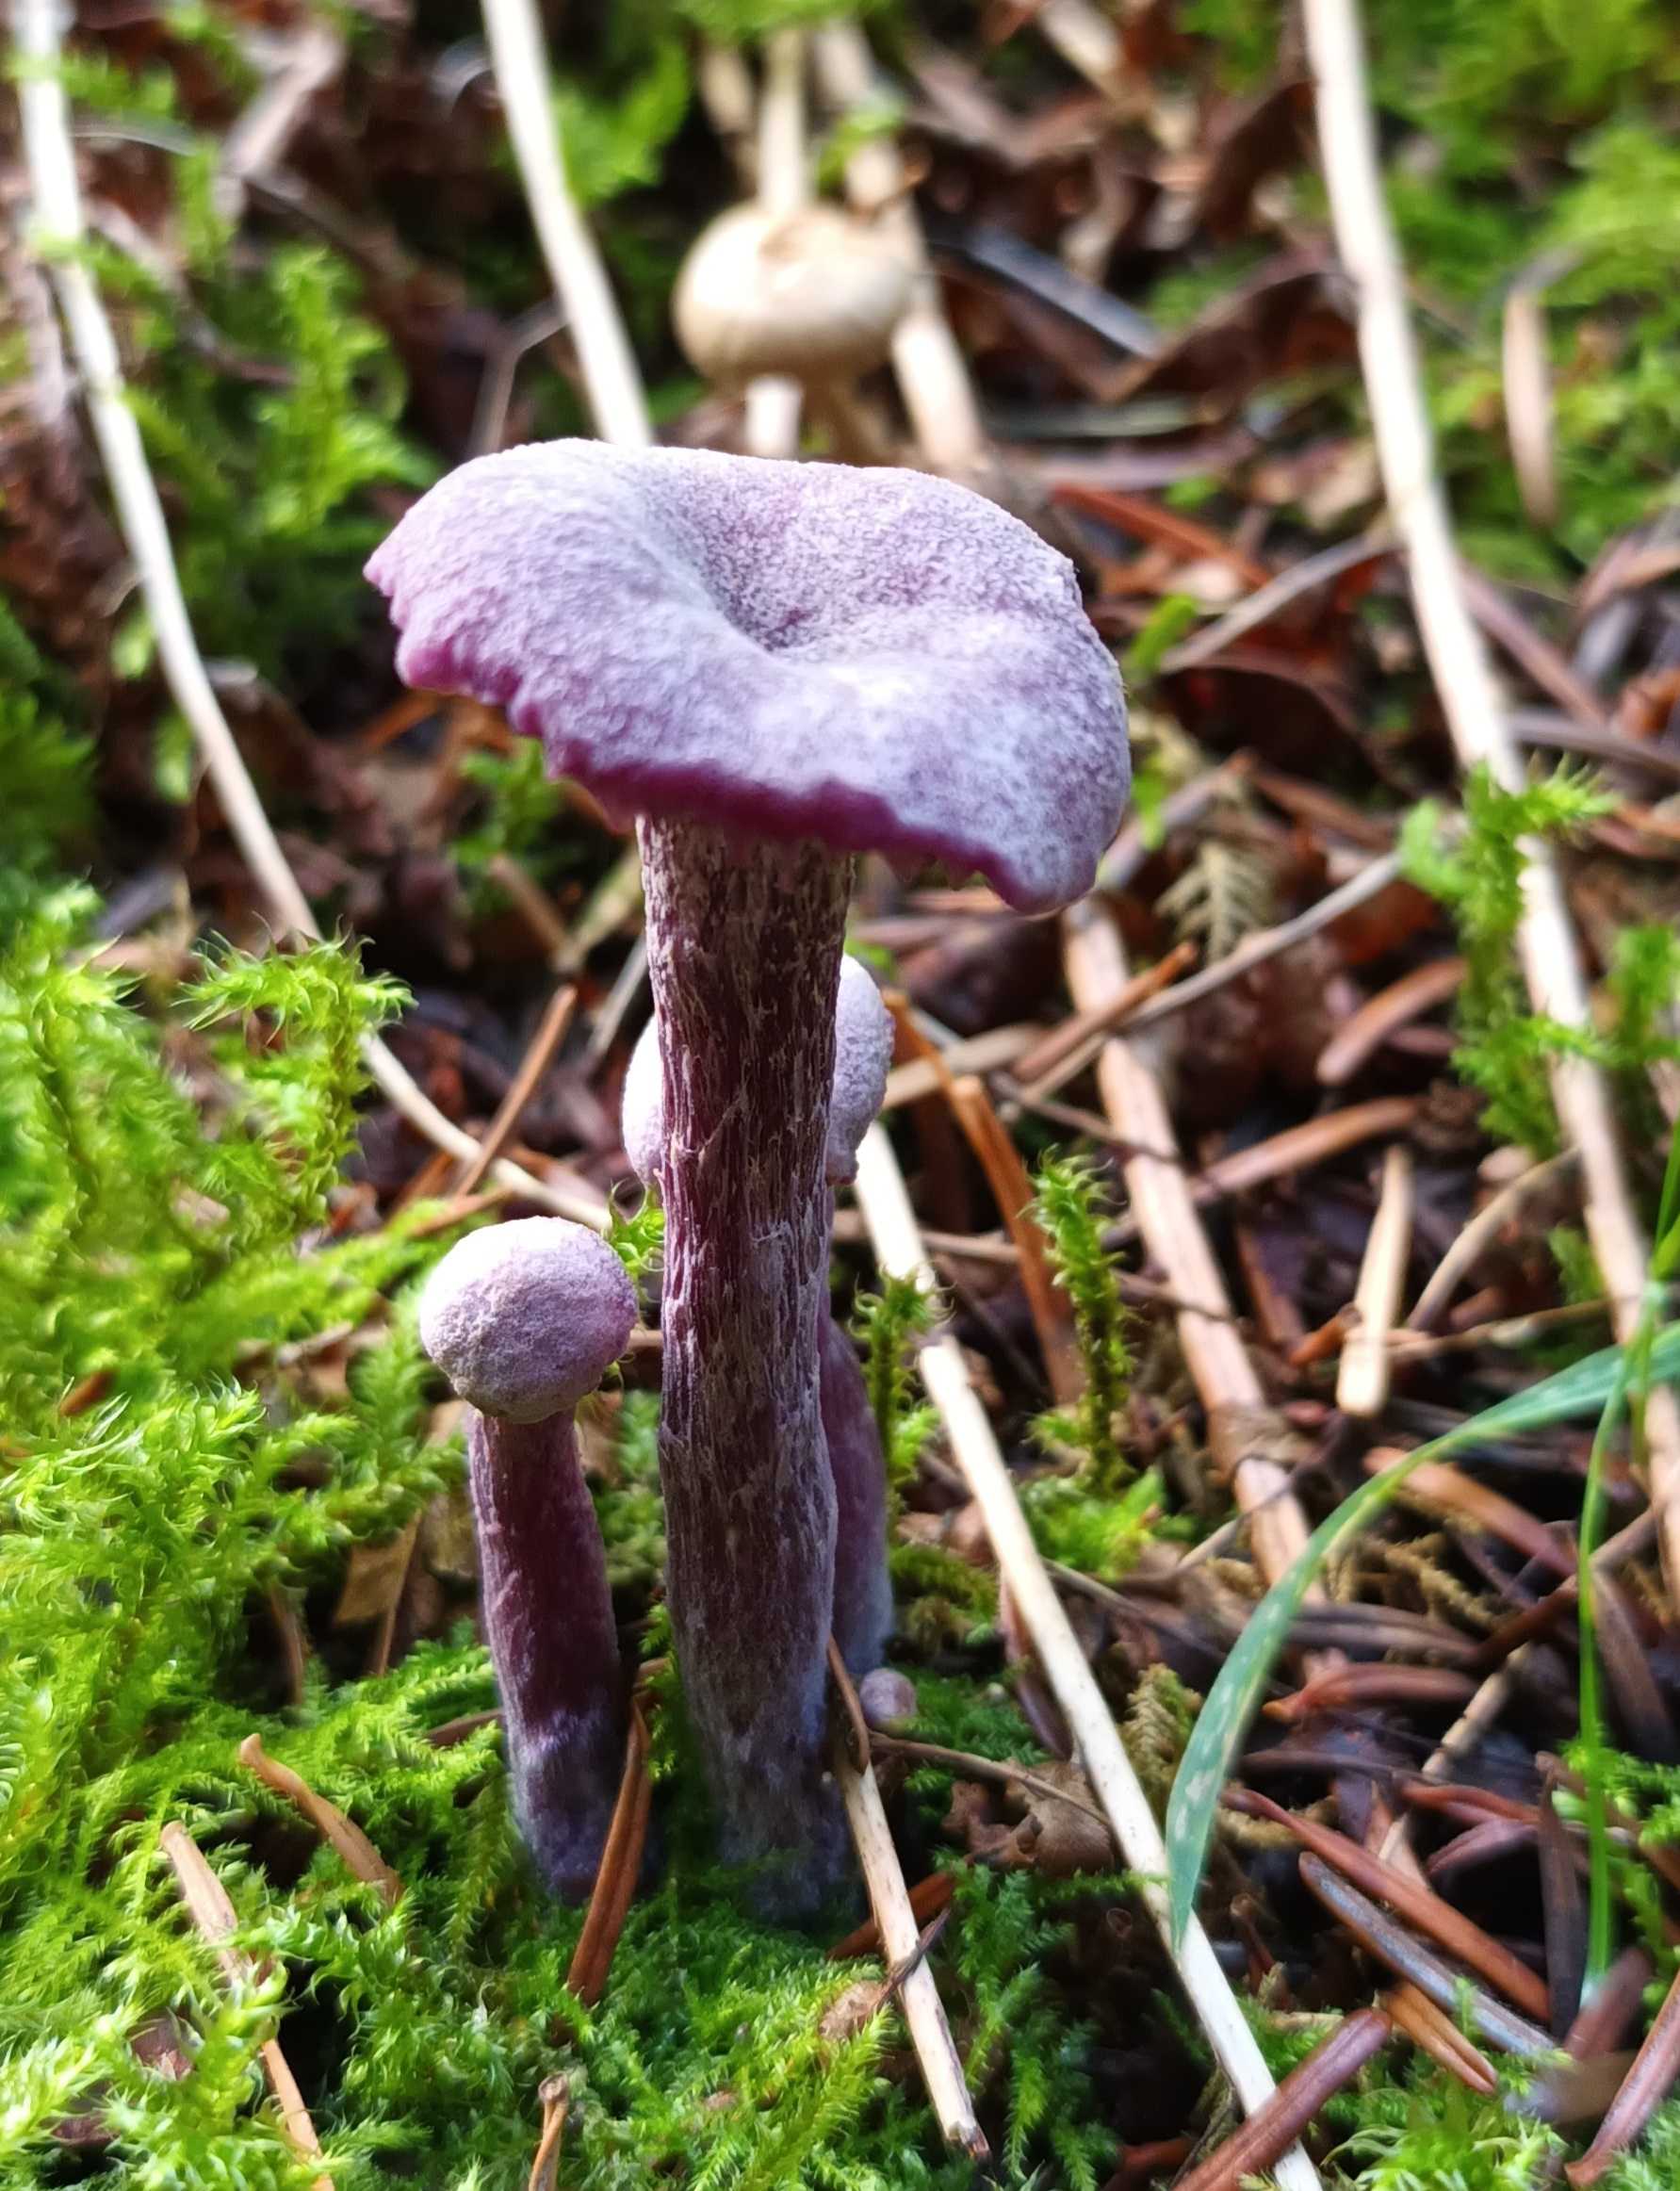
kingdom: Fungi
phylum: Basidiomycota
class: Agaricomycetes
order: Agaricales
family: Hydnangiaceae
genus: Laccaria
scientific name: Laccaria amethystina
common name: Violet ametysthat
